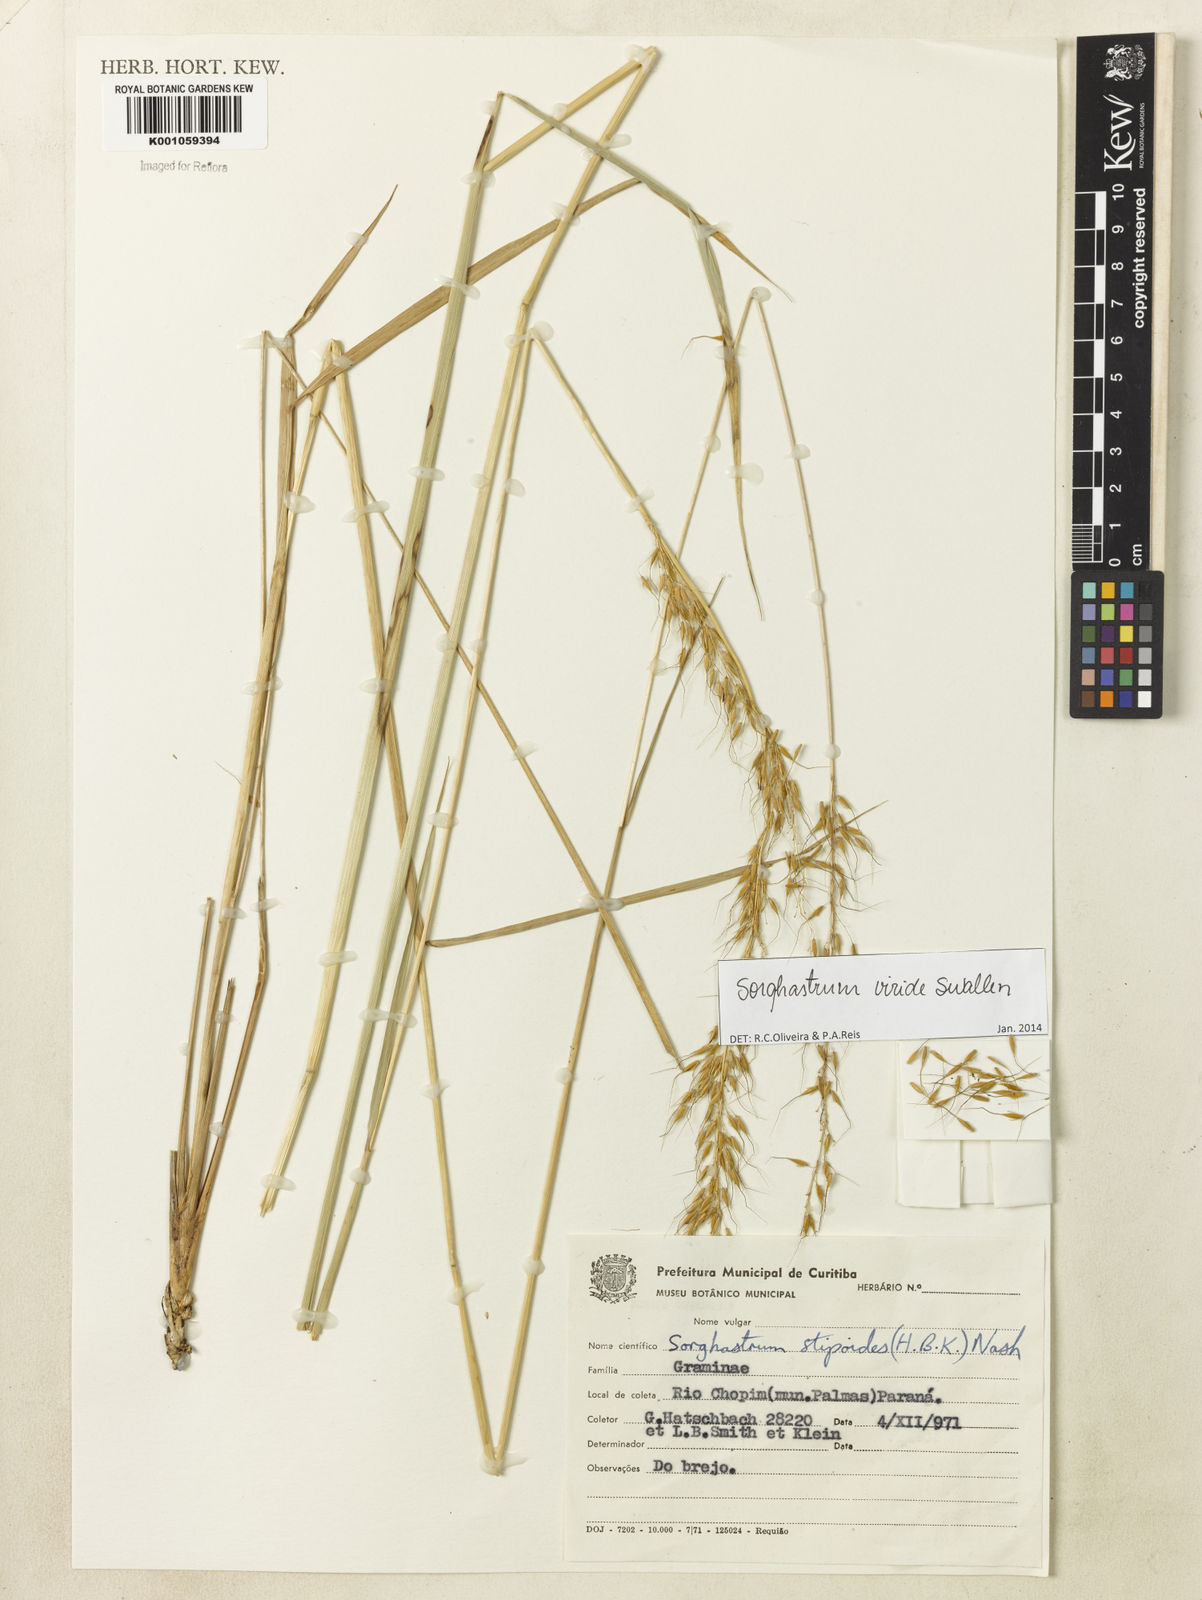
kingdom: Plantae
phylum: Tracheophyta
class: Liliopsida
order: Poales
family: Poaceae
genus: Sorghastrum
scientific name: Sorghastrum viride
